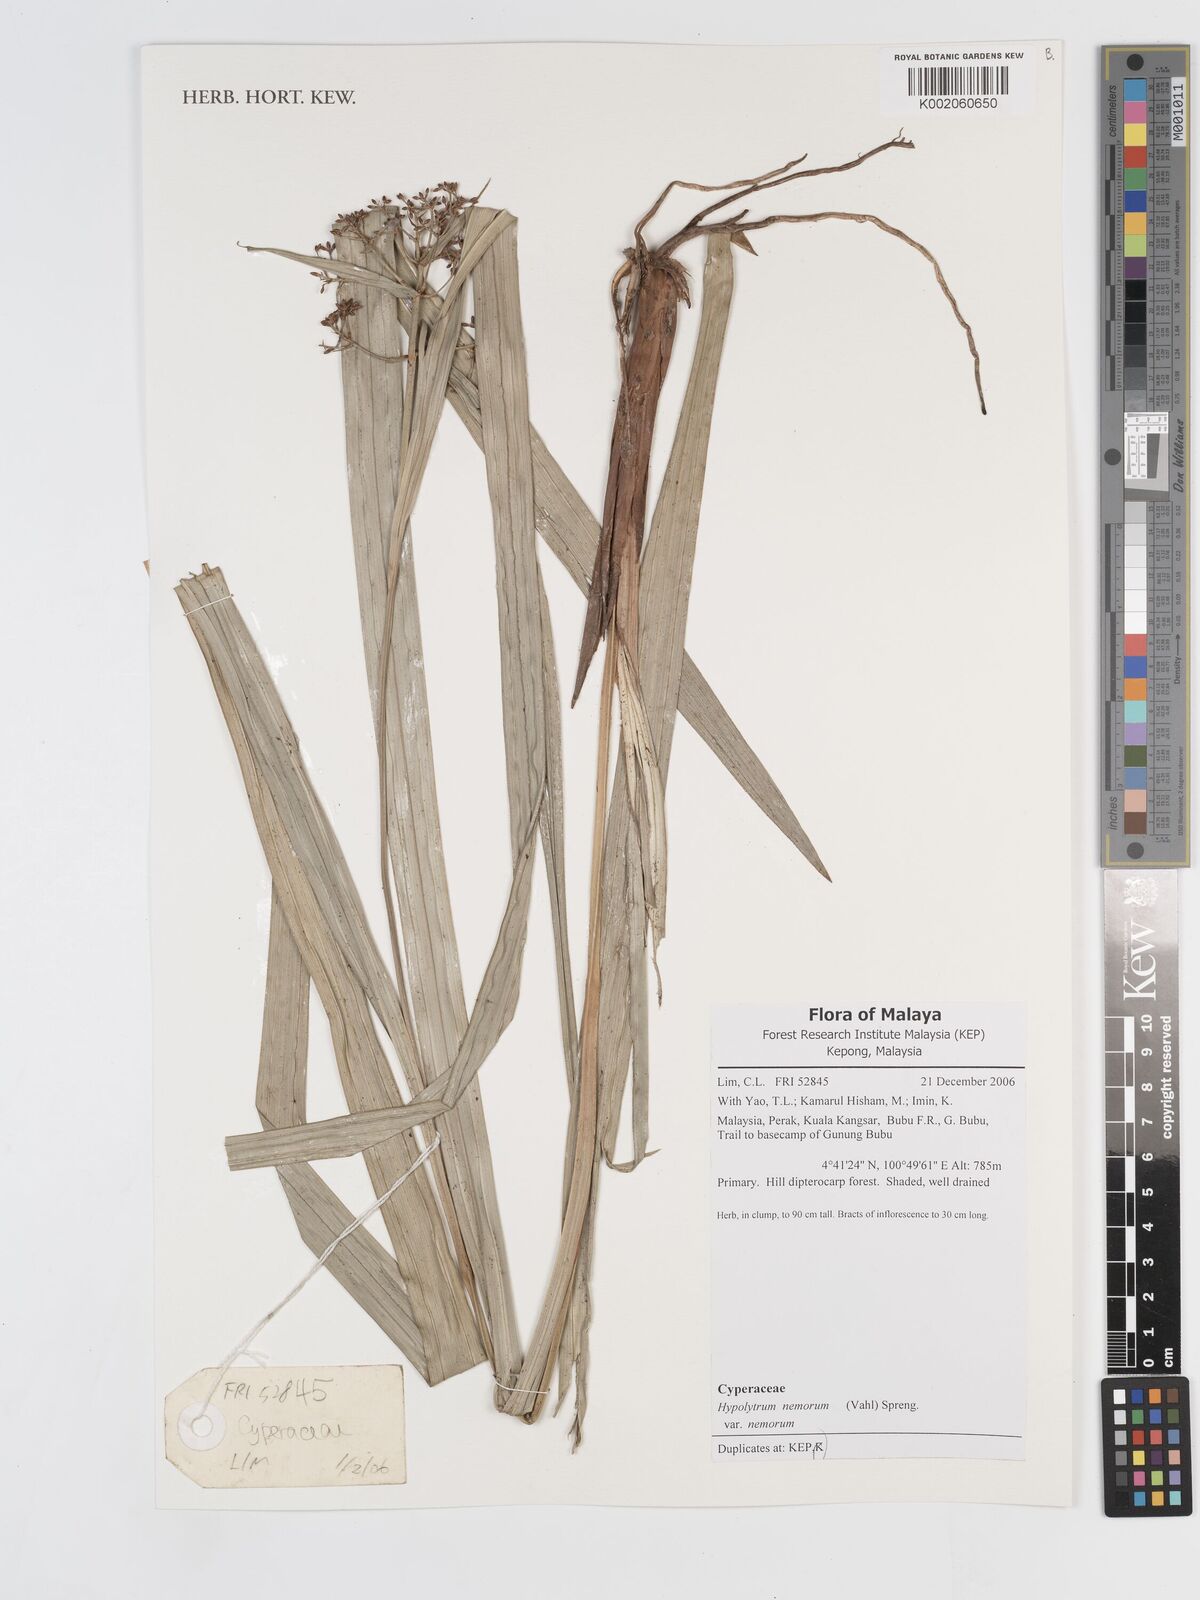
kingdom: Plantae
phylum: Tracheophyta
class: Liliopsida
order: Poales
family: Cyperaceae
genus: Hypolytrum
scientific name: Hypolytrum nemorum
